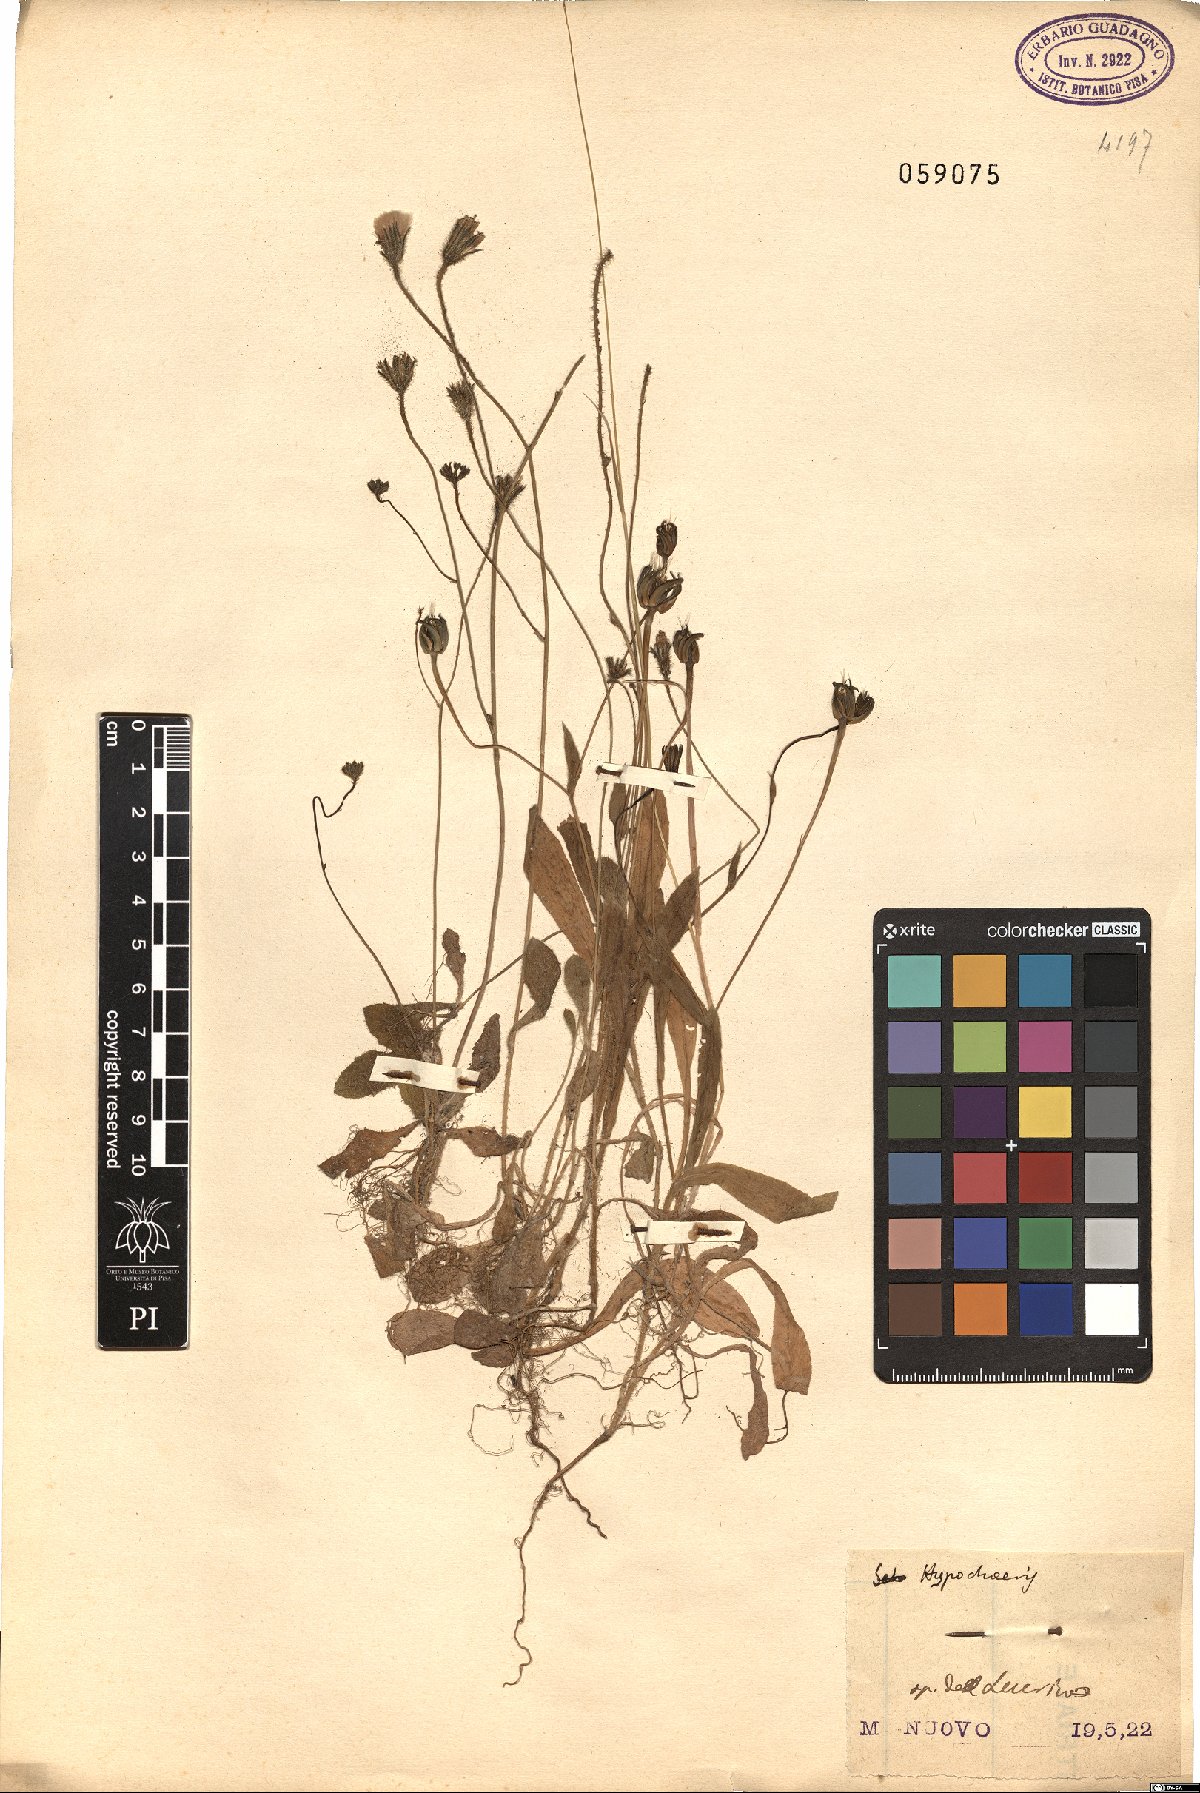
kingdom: Plantae
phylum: Tracheophyta
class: Magnoliopsida
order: Asterales
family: Asteraceae
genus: Hypochaeris
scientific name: Hypochaeris
